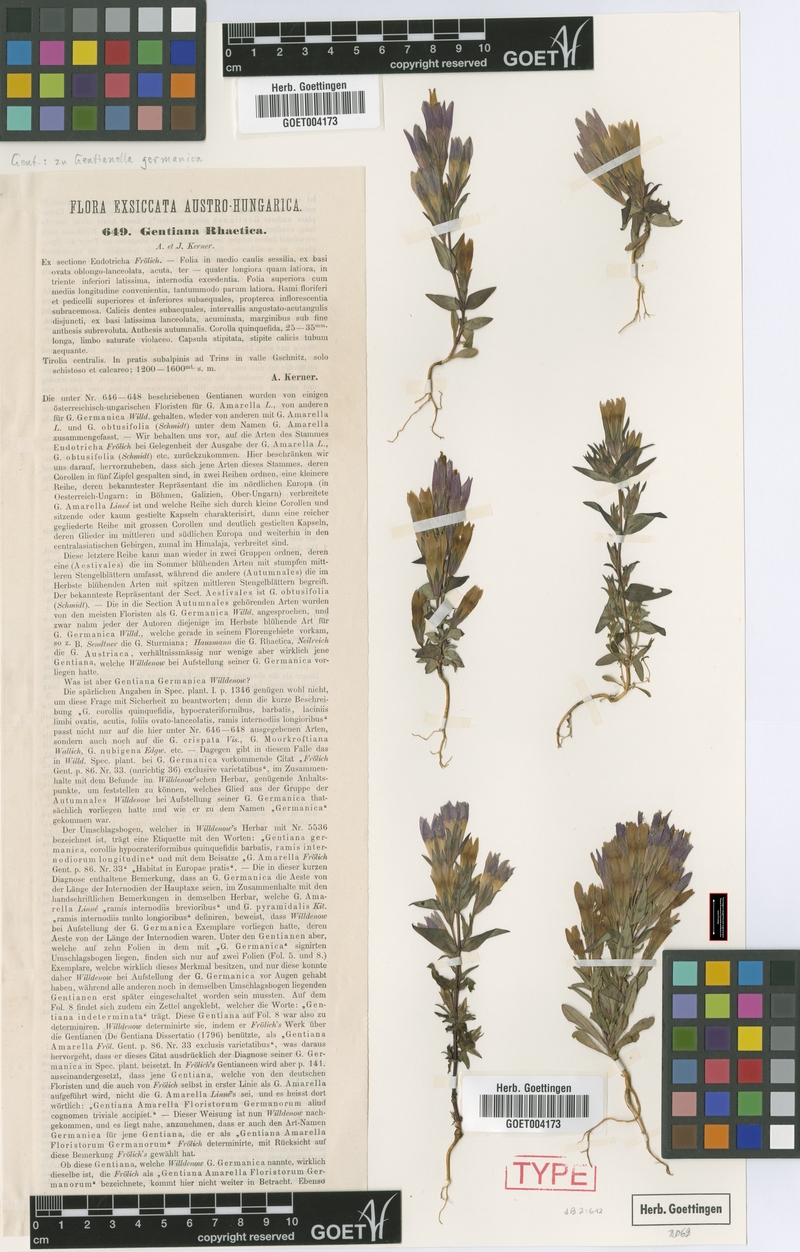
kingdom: Plantae
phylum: Tracheophyta
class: Magnoliopsida
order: Gentianales
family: Gentianaceae
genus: Gentianella
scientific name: Gentianella germanica
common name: Chiltern-gentian
